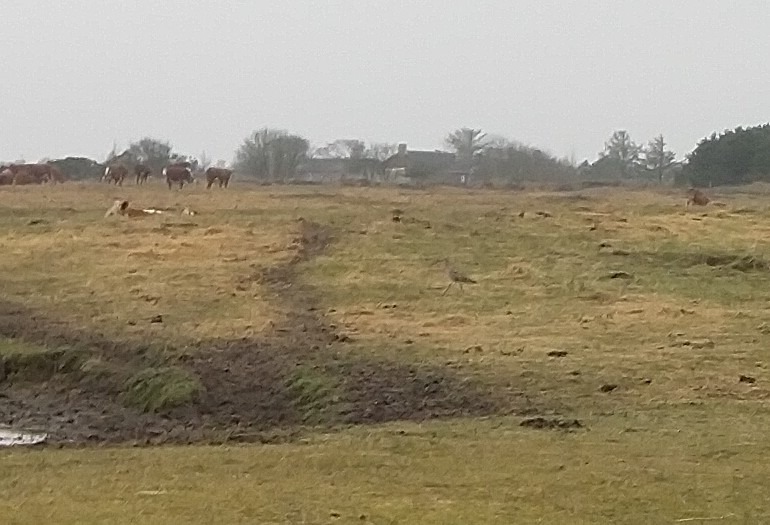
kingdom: Animalia
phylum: Chordata
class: Aves
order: Charadriiformes
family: Scolopacidae
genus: Numenius
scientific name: Numenius arquata
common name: Storspove
